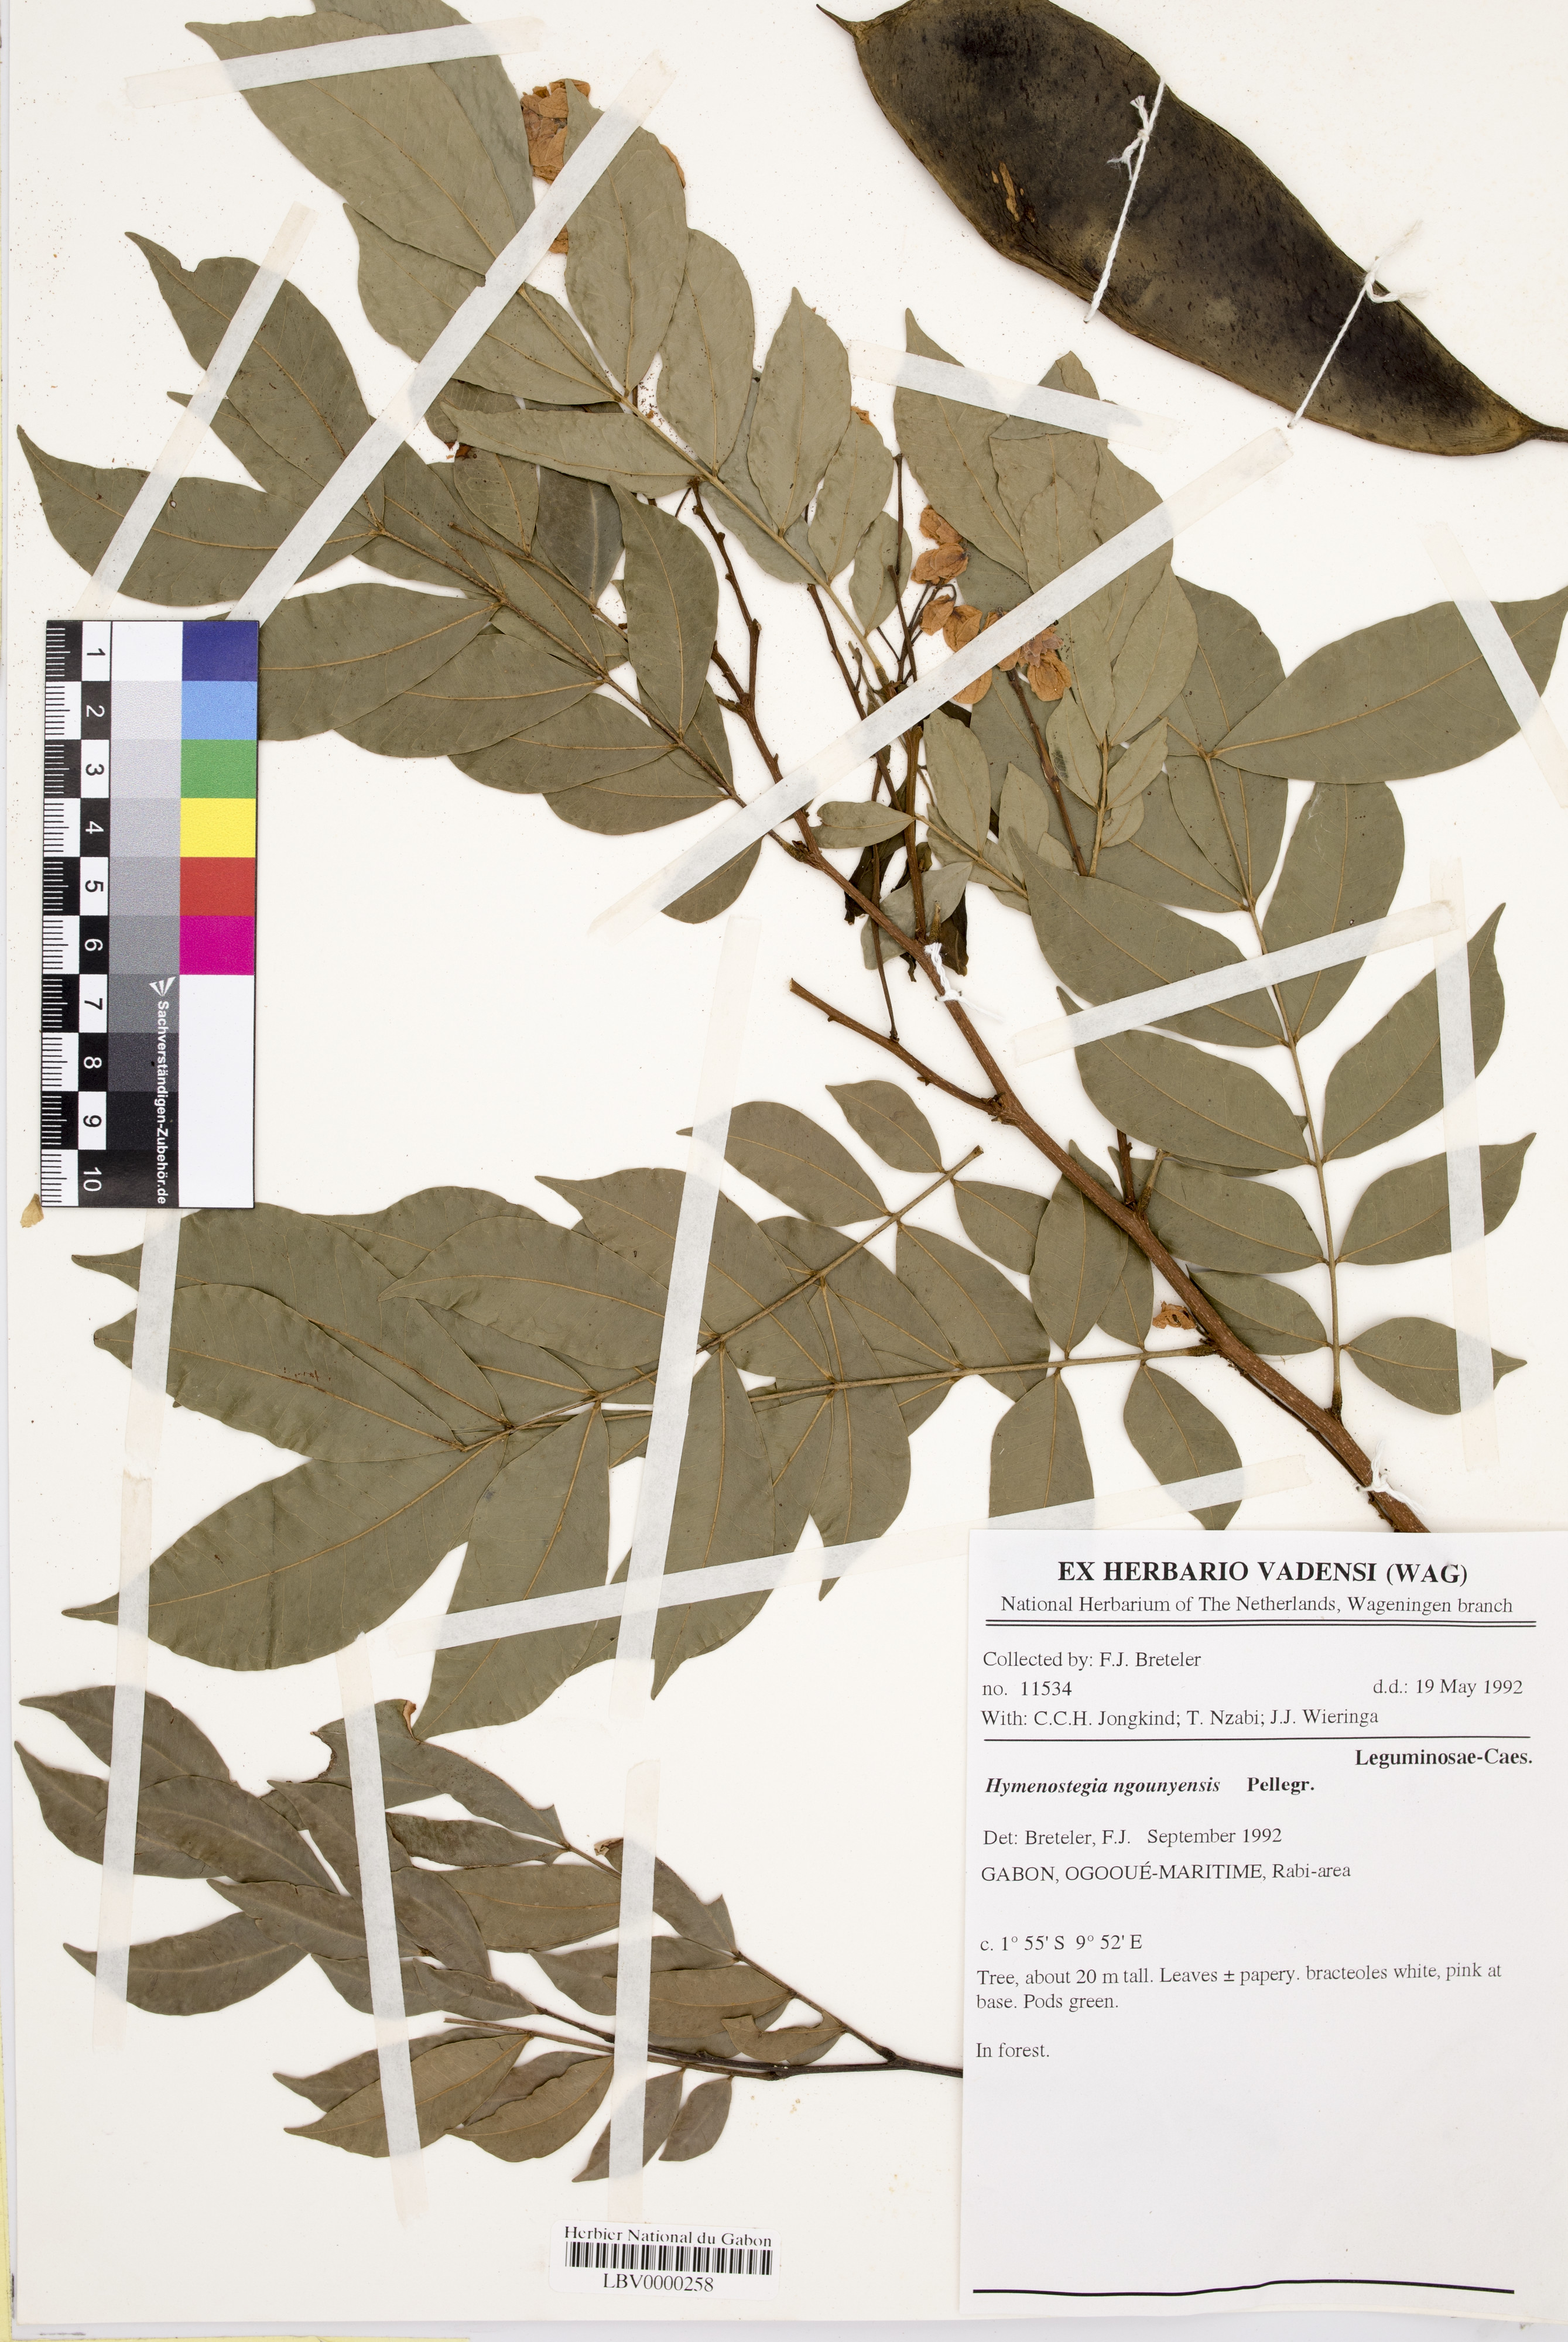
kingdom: Plantae
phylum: Tracheophyta
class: Magnoliopsida
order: Fabales
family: Fabaceae
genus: Gabonius
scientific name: Gabonius ngouniensis
